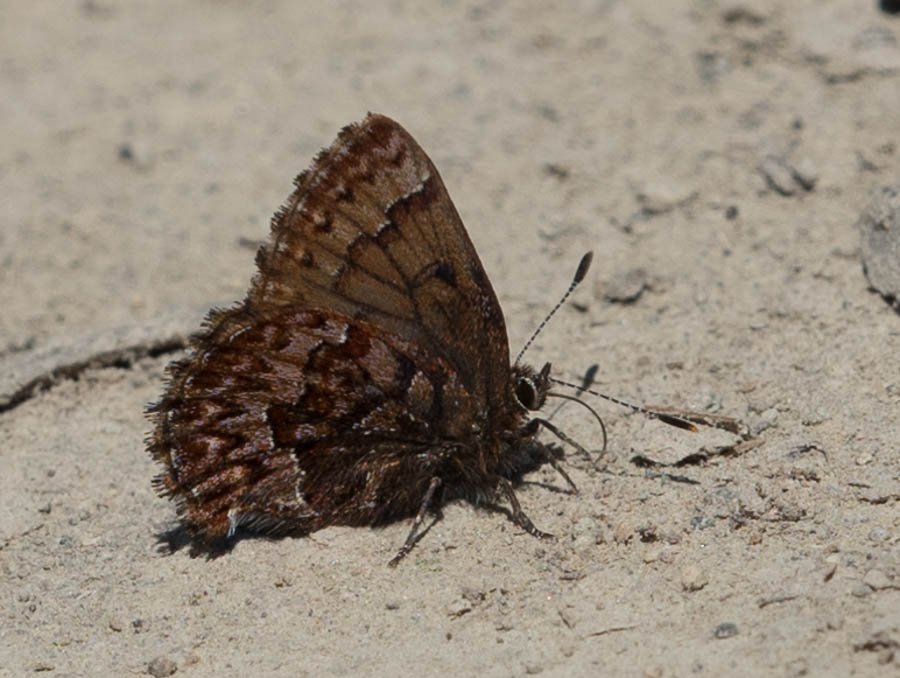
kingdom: Animalia
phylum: Arthropoda
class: Insecta
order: Lepidoptera
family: Lycaenidae
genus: Incisalia
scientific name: Incisalia eryphon
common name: Western Pine Elfin
